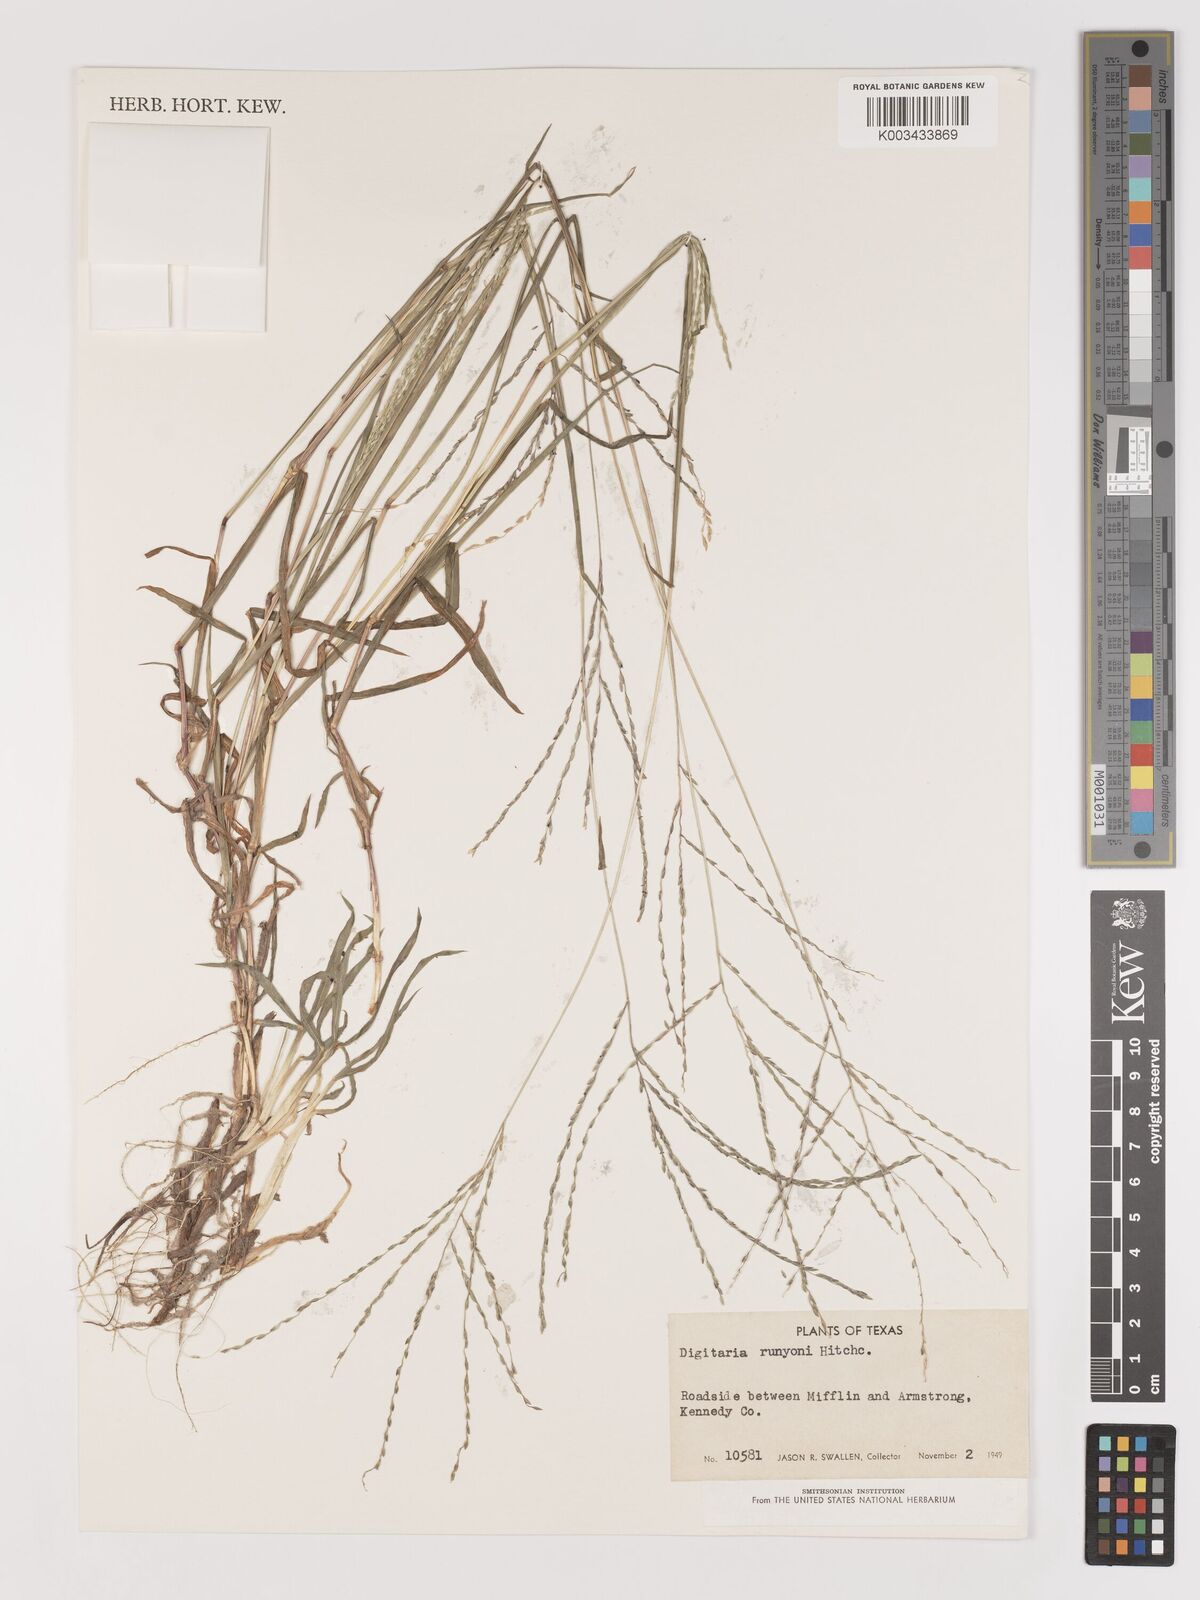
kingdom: Plantae
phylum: Tracheophyta
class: Liliopsida
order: Poales
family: Poaceae
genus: Digitaria
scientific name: Digitaria texana
